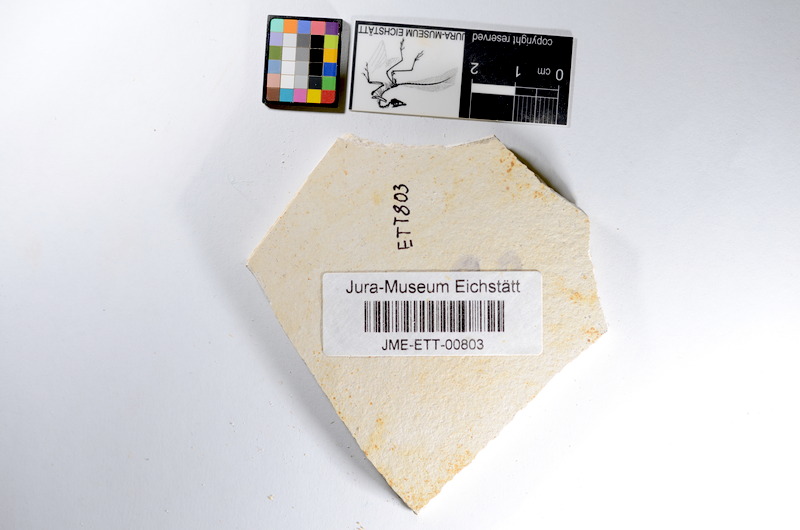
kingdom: Animalia
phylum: Chordata
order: Salmoniformes
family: Orthogonikleithridae
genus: Orthogonikleithrus
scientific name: Orthogonikleithrus hoelli
